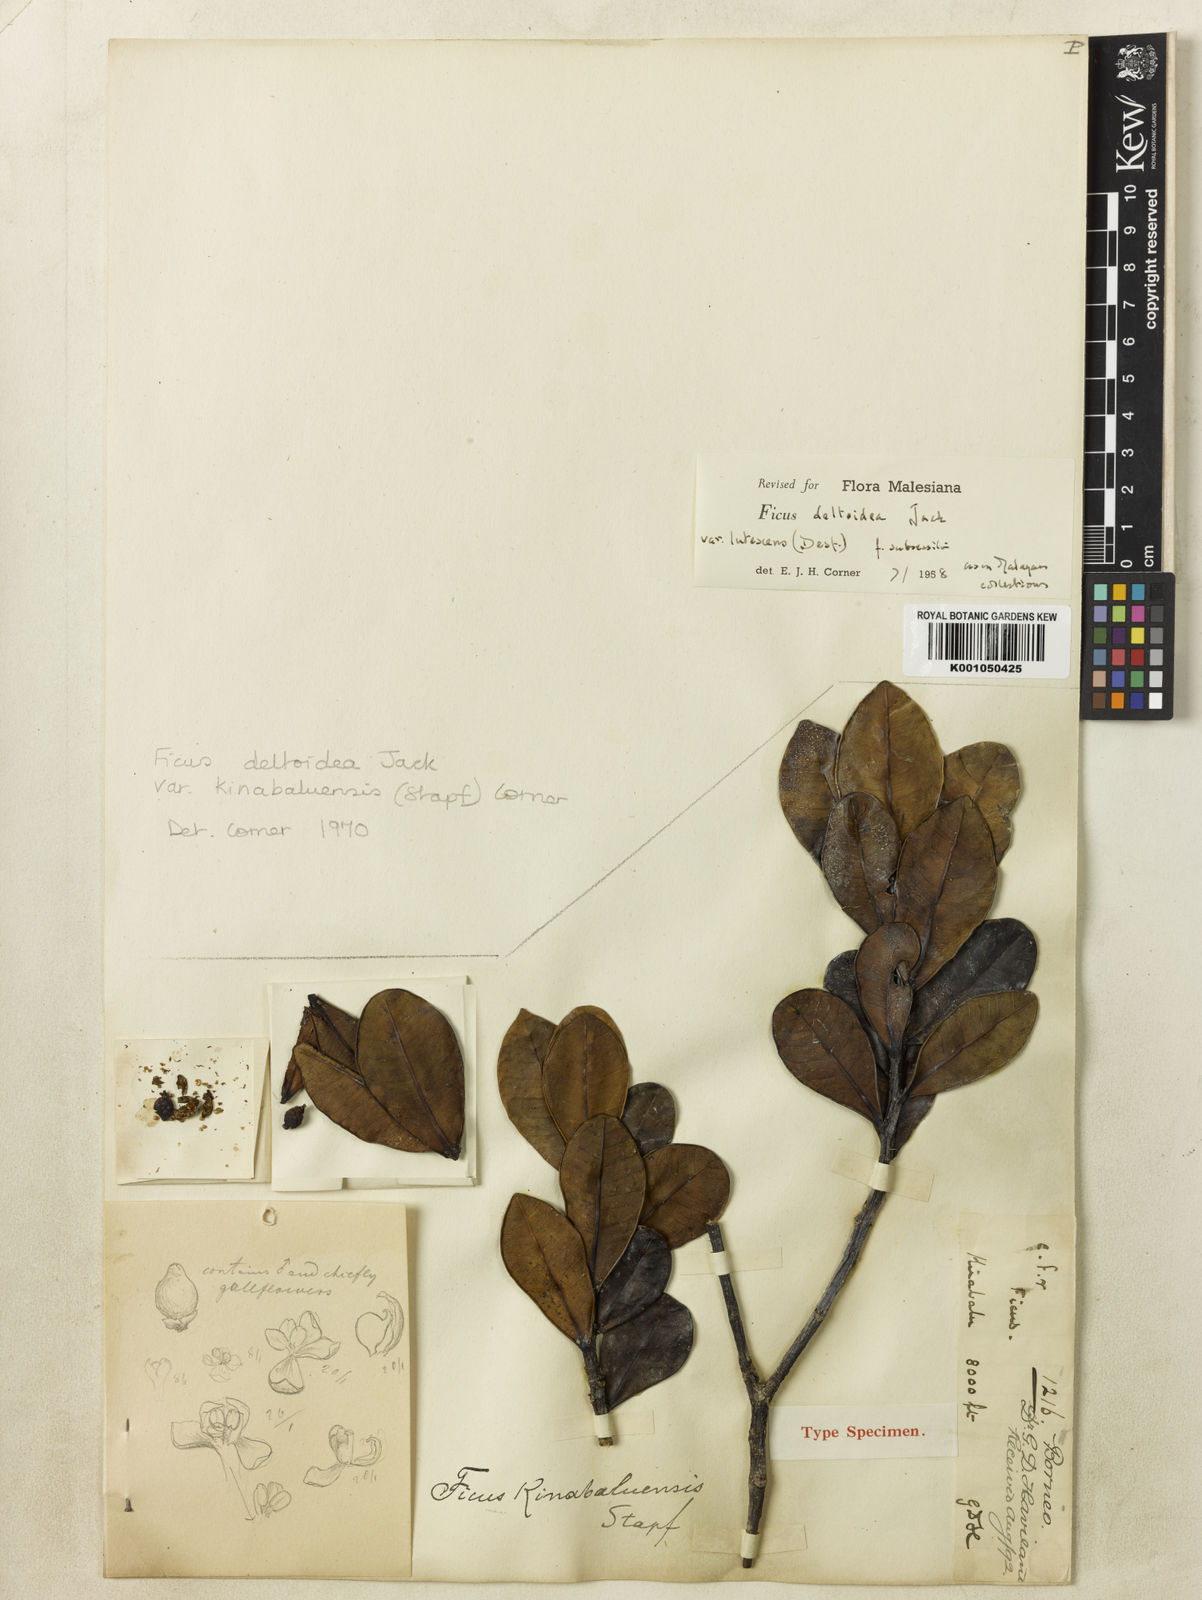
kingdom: Plantae
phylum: Tracheophyta
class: Magnoliopsida
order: Rosales
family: Moraceae
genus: Ficus
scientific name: Ficus oleifolia
